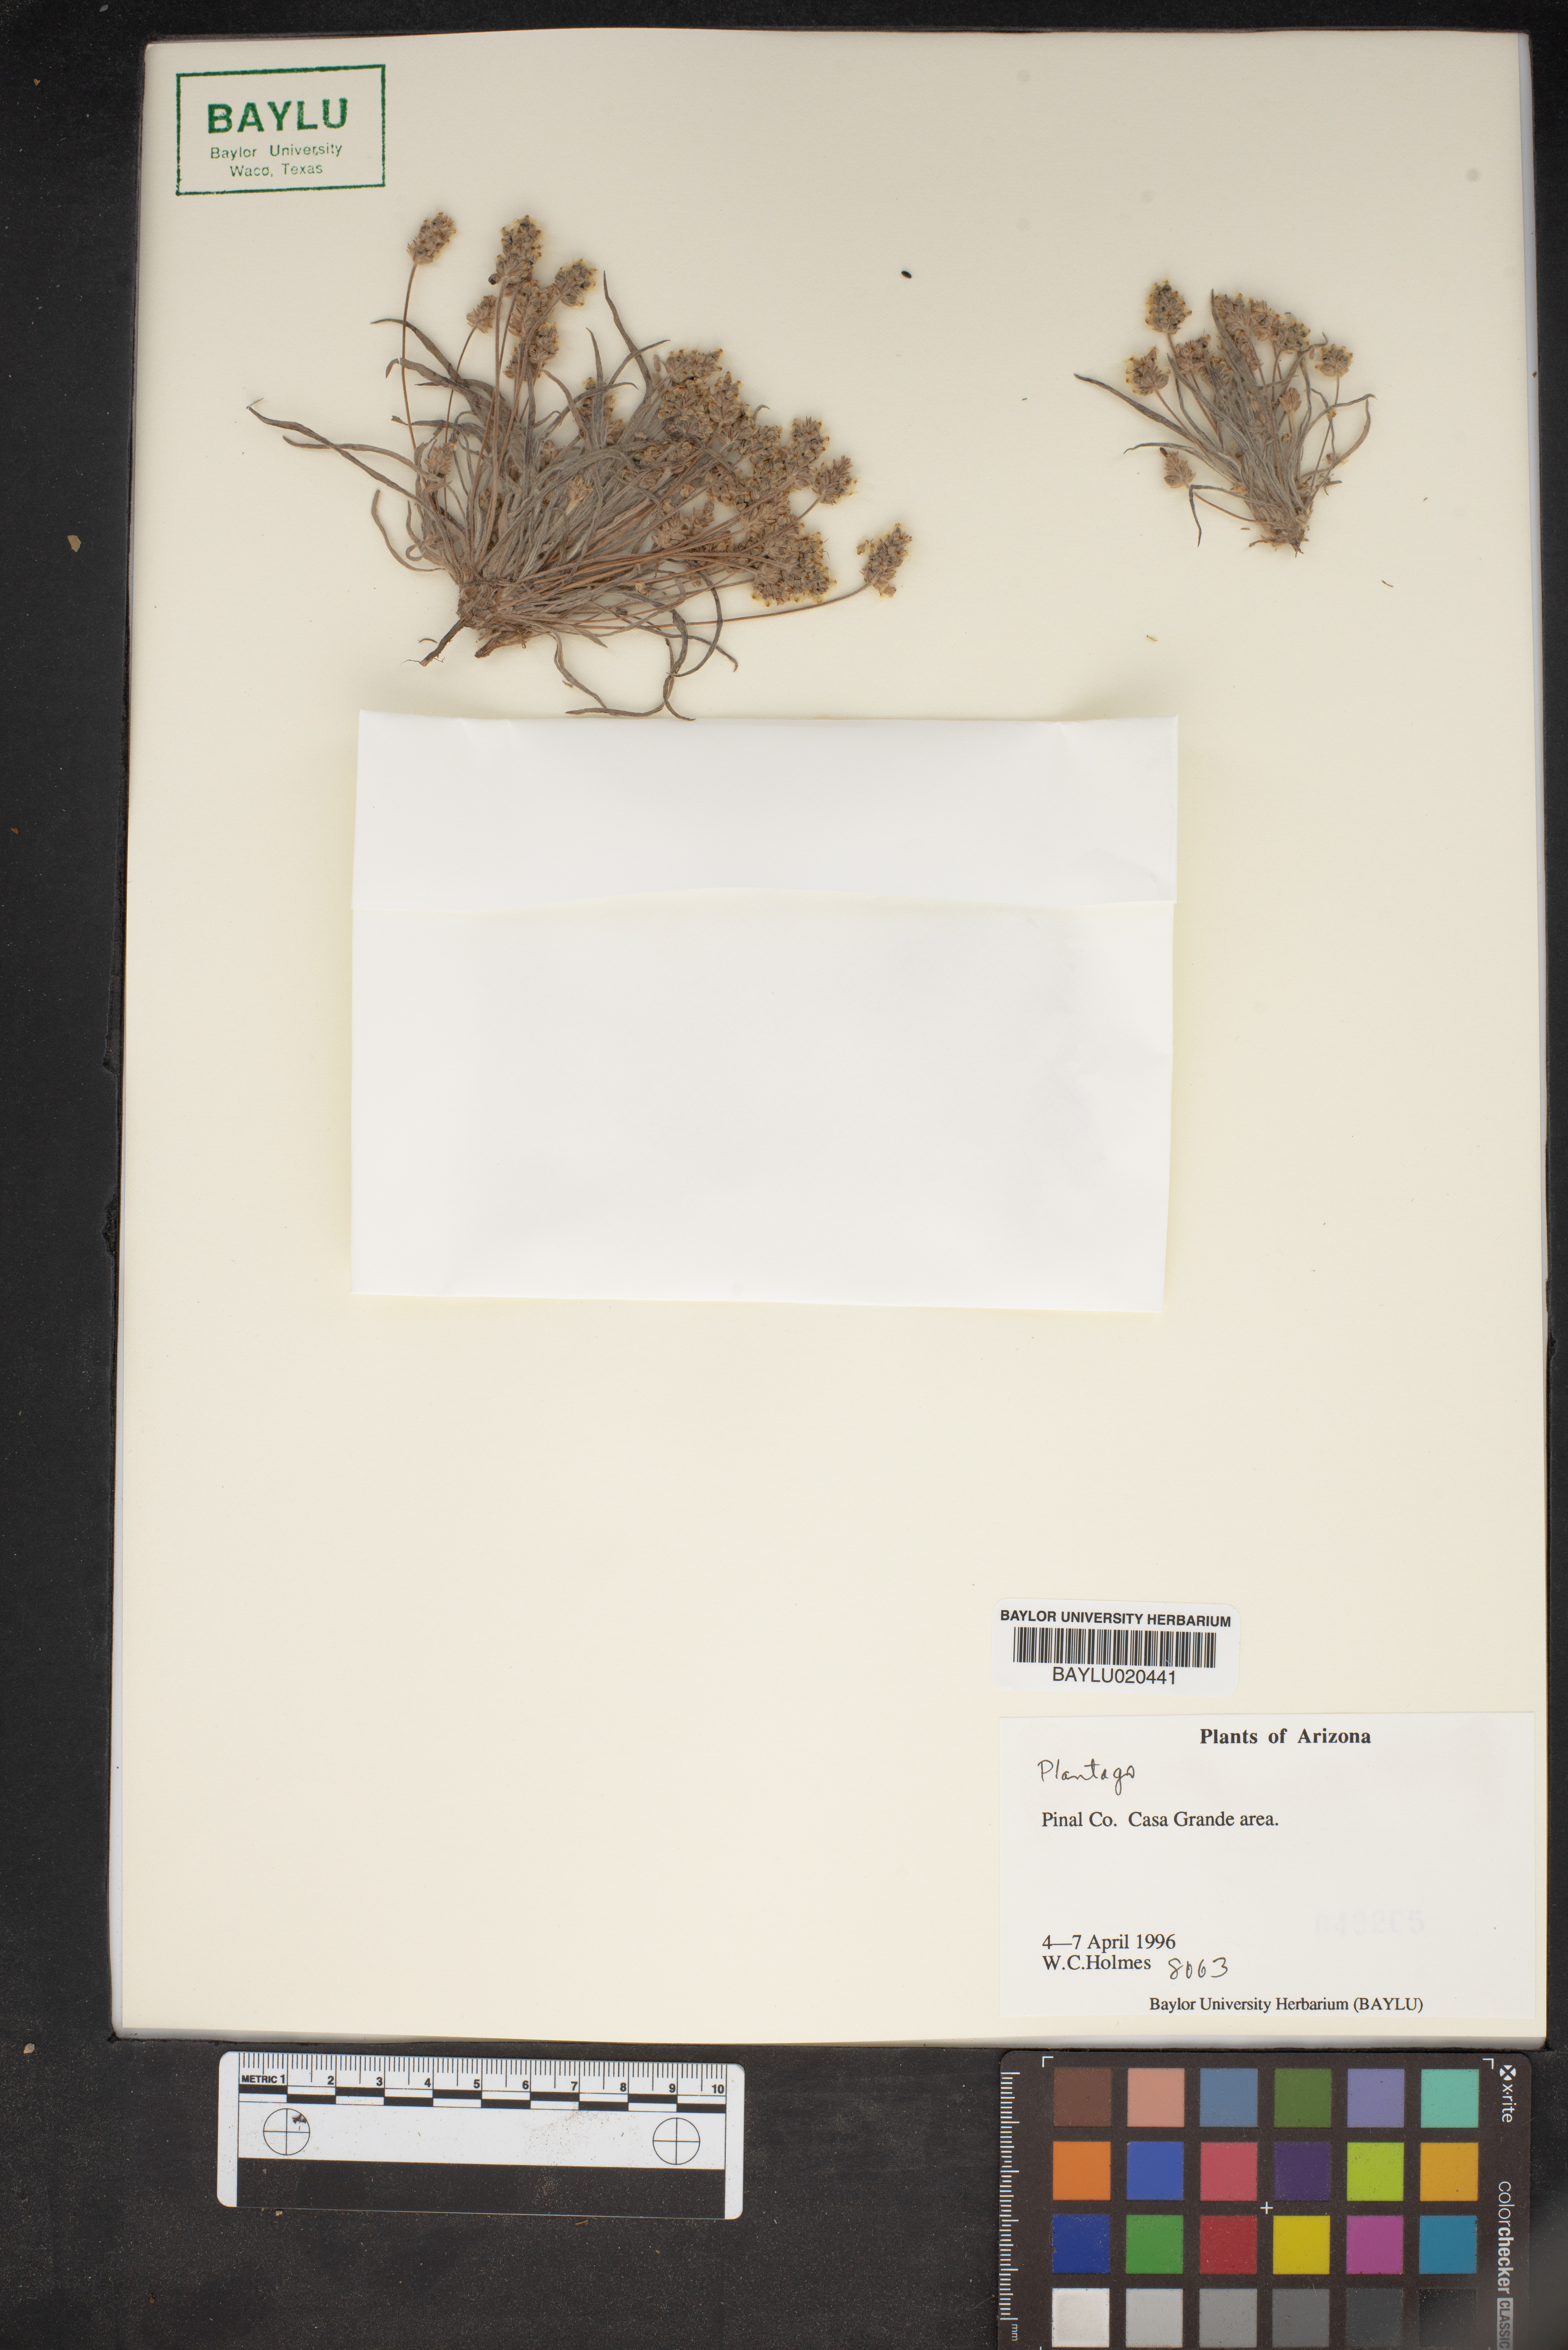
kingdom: Plantae
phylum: Tracheophyta
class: Magnoliopsida
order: Lamiales
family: Plantaginaceae
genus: Plantago
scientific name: Plantago
